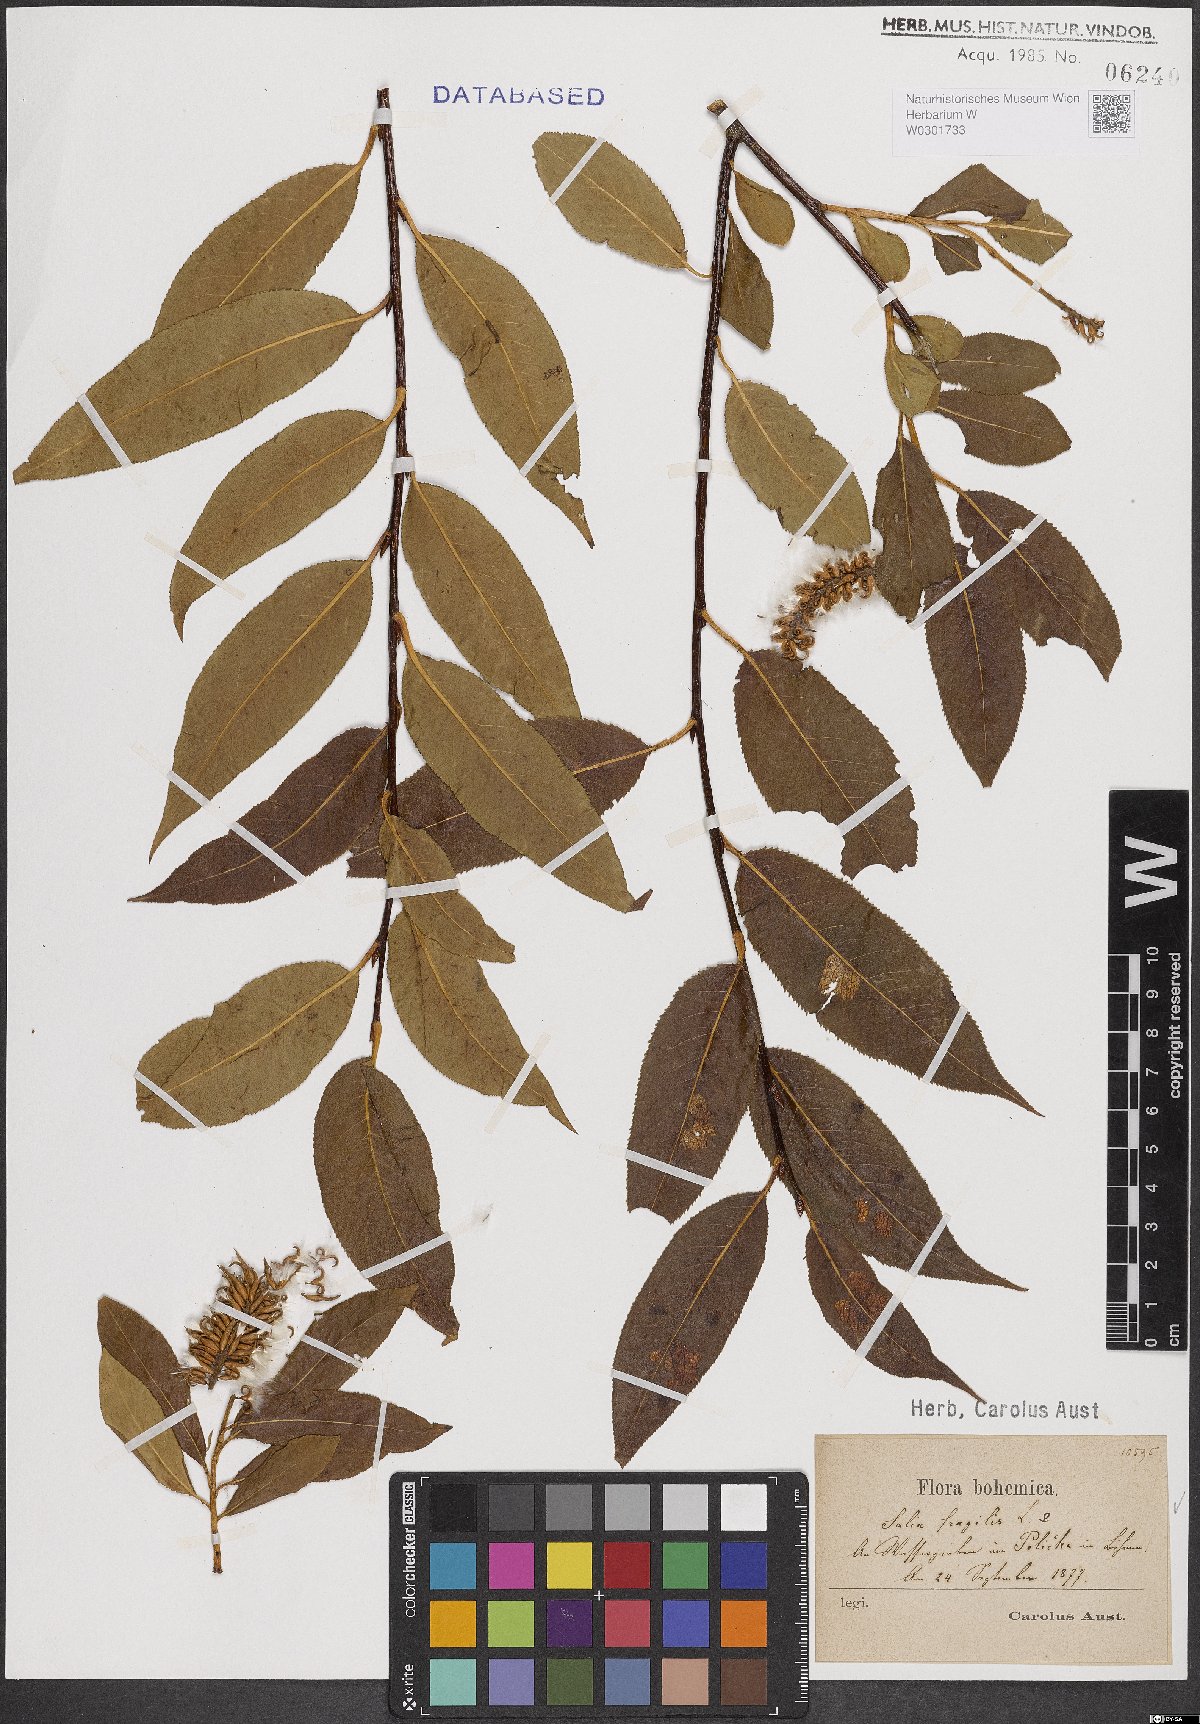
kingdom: Plantae
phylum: Tracheophyta
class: Magnoliopsida
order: Malpighiales
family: Salicaceae
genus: Salix
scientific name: Salix fragilis
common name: Crack willow
